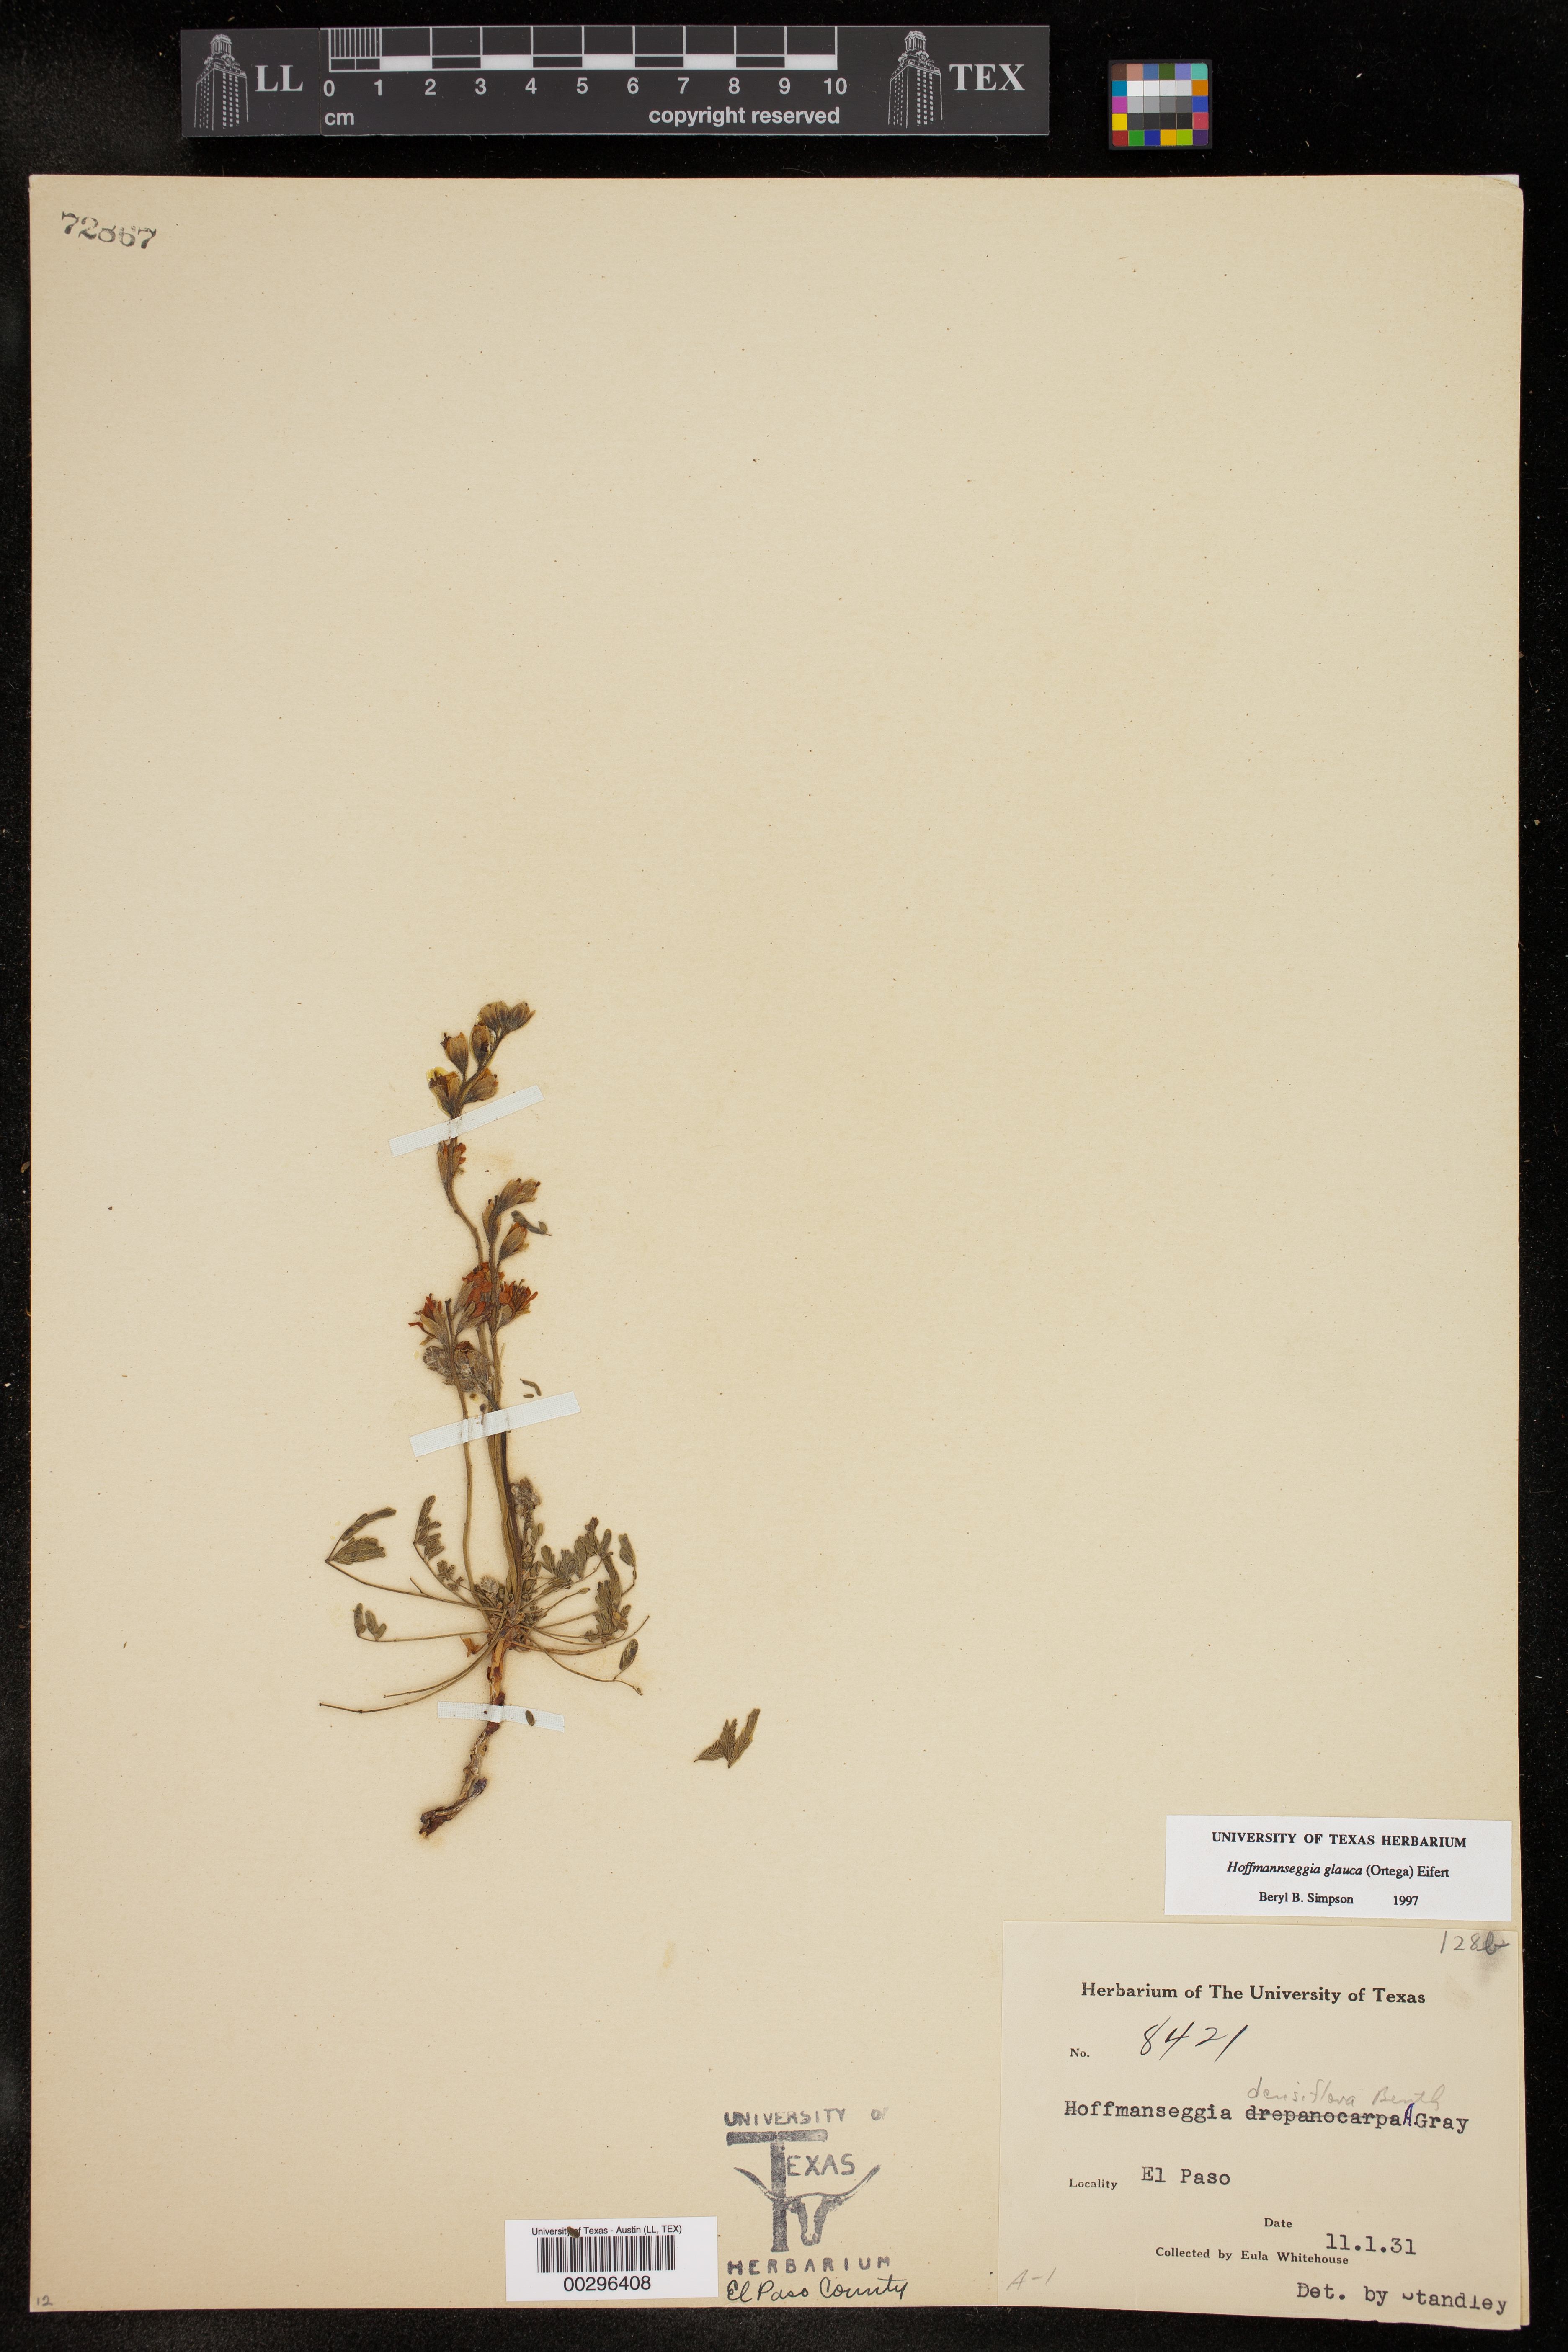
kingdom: Plantae
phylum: Tracheophyta
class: Magnoliopsida
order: Fabales
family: Fabaceae
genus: Hoffmannseggia
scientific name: Hoffmannseggia glauca
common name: Pignut
